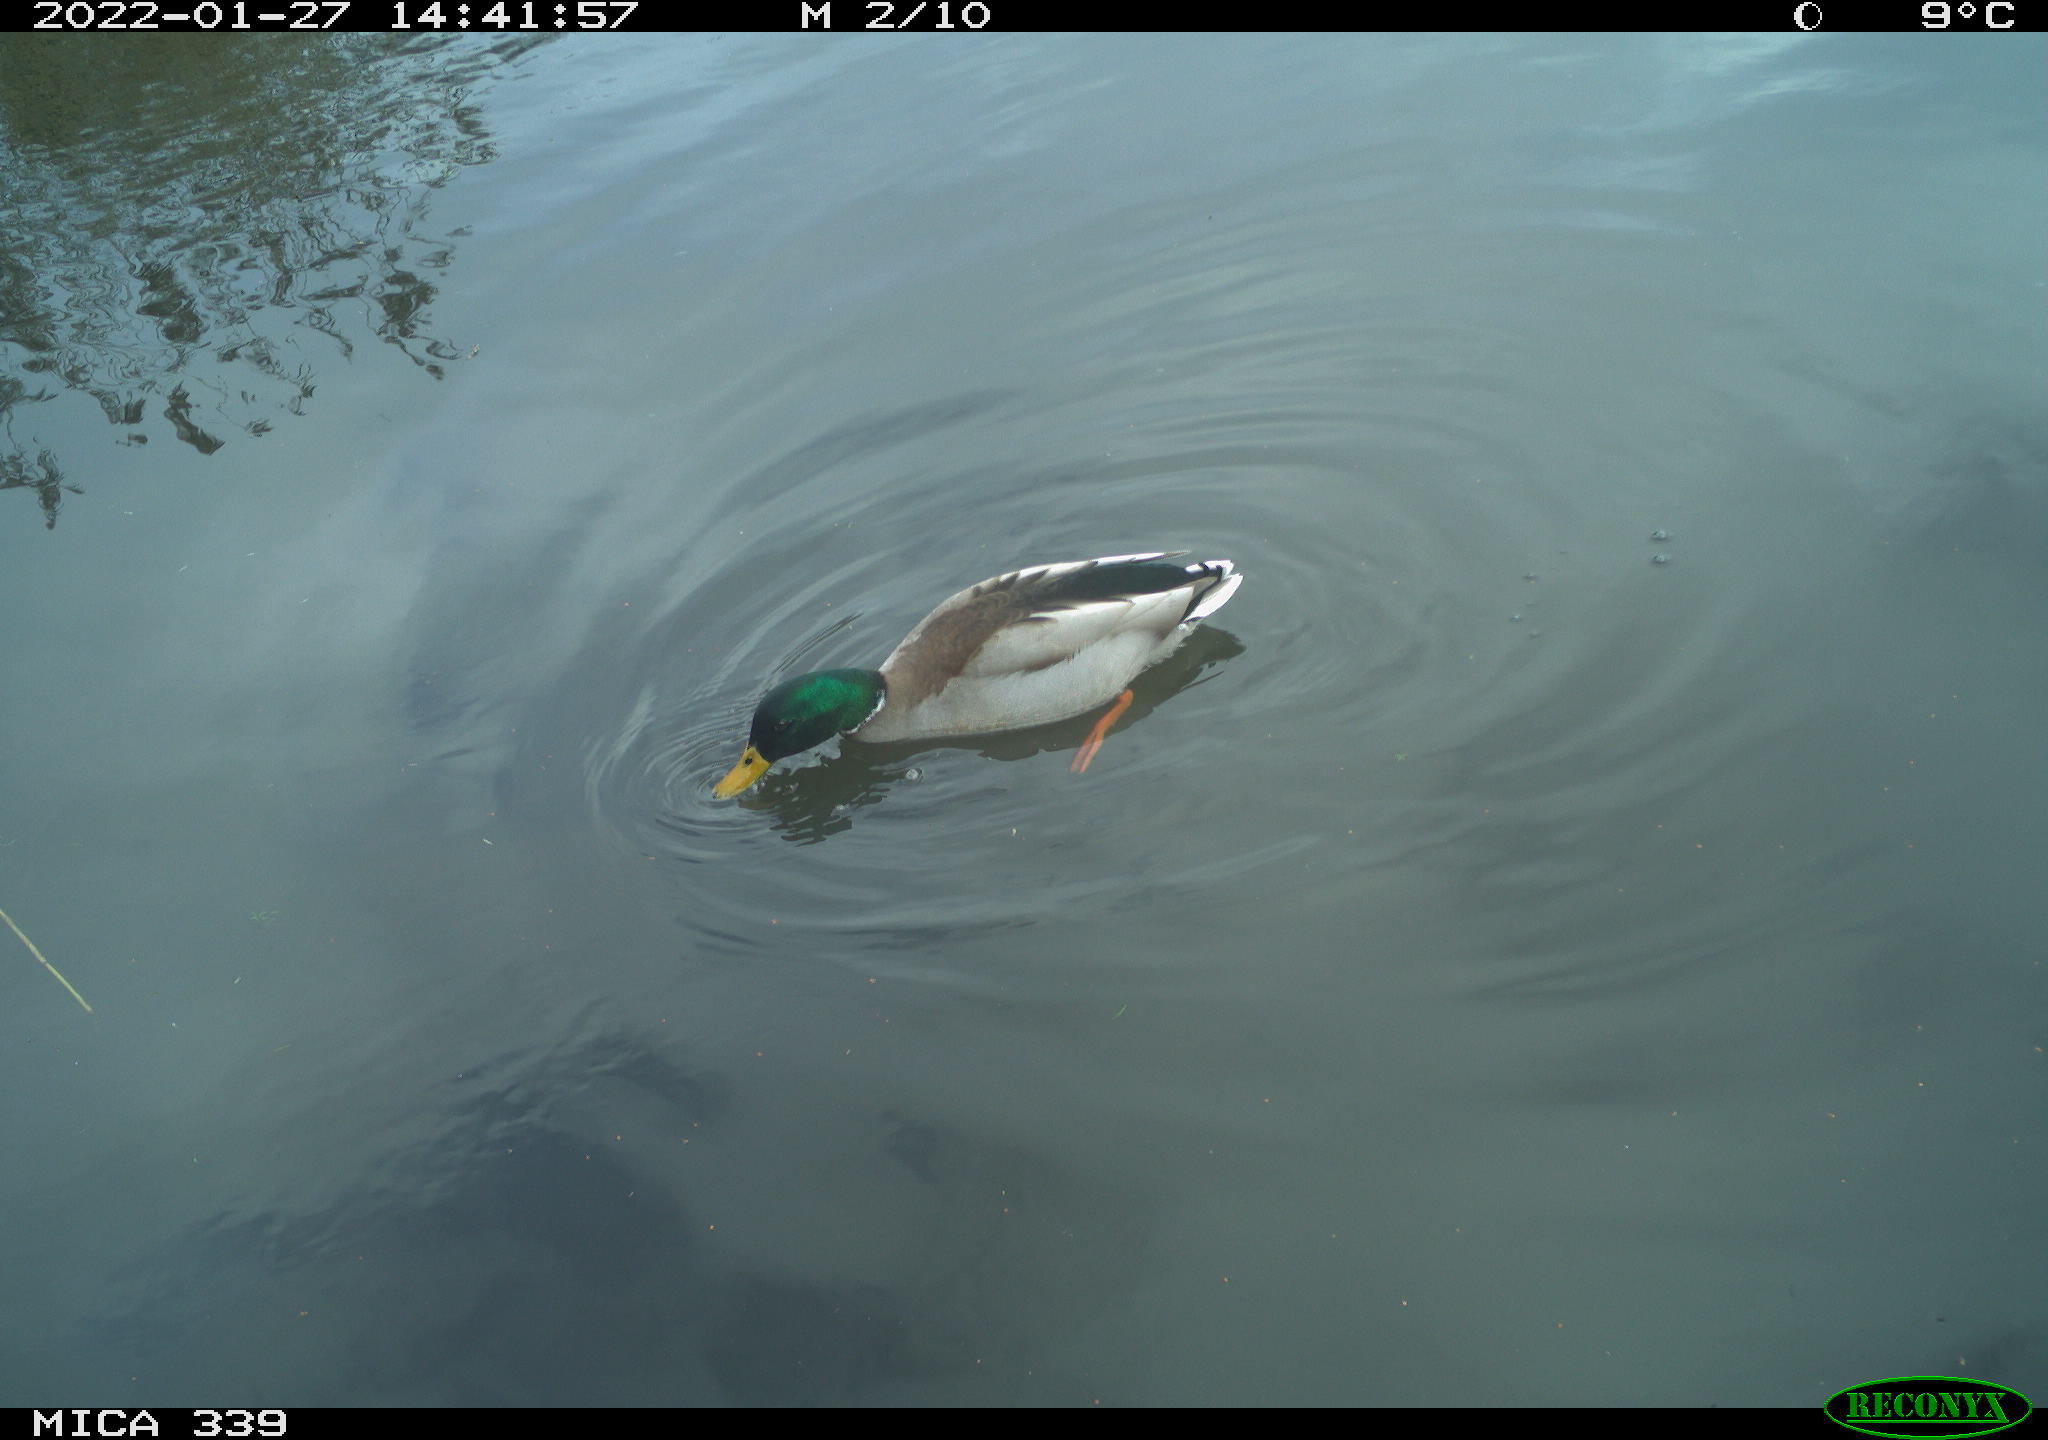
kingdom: Animalia
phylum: Chordata
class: Aves
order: Anseriformes
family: Anatidae
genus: Anas
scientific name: Anas platyrhynchos
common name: Mallard
